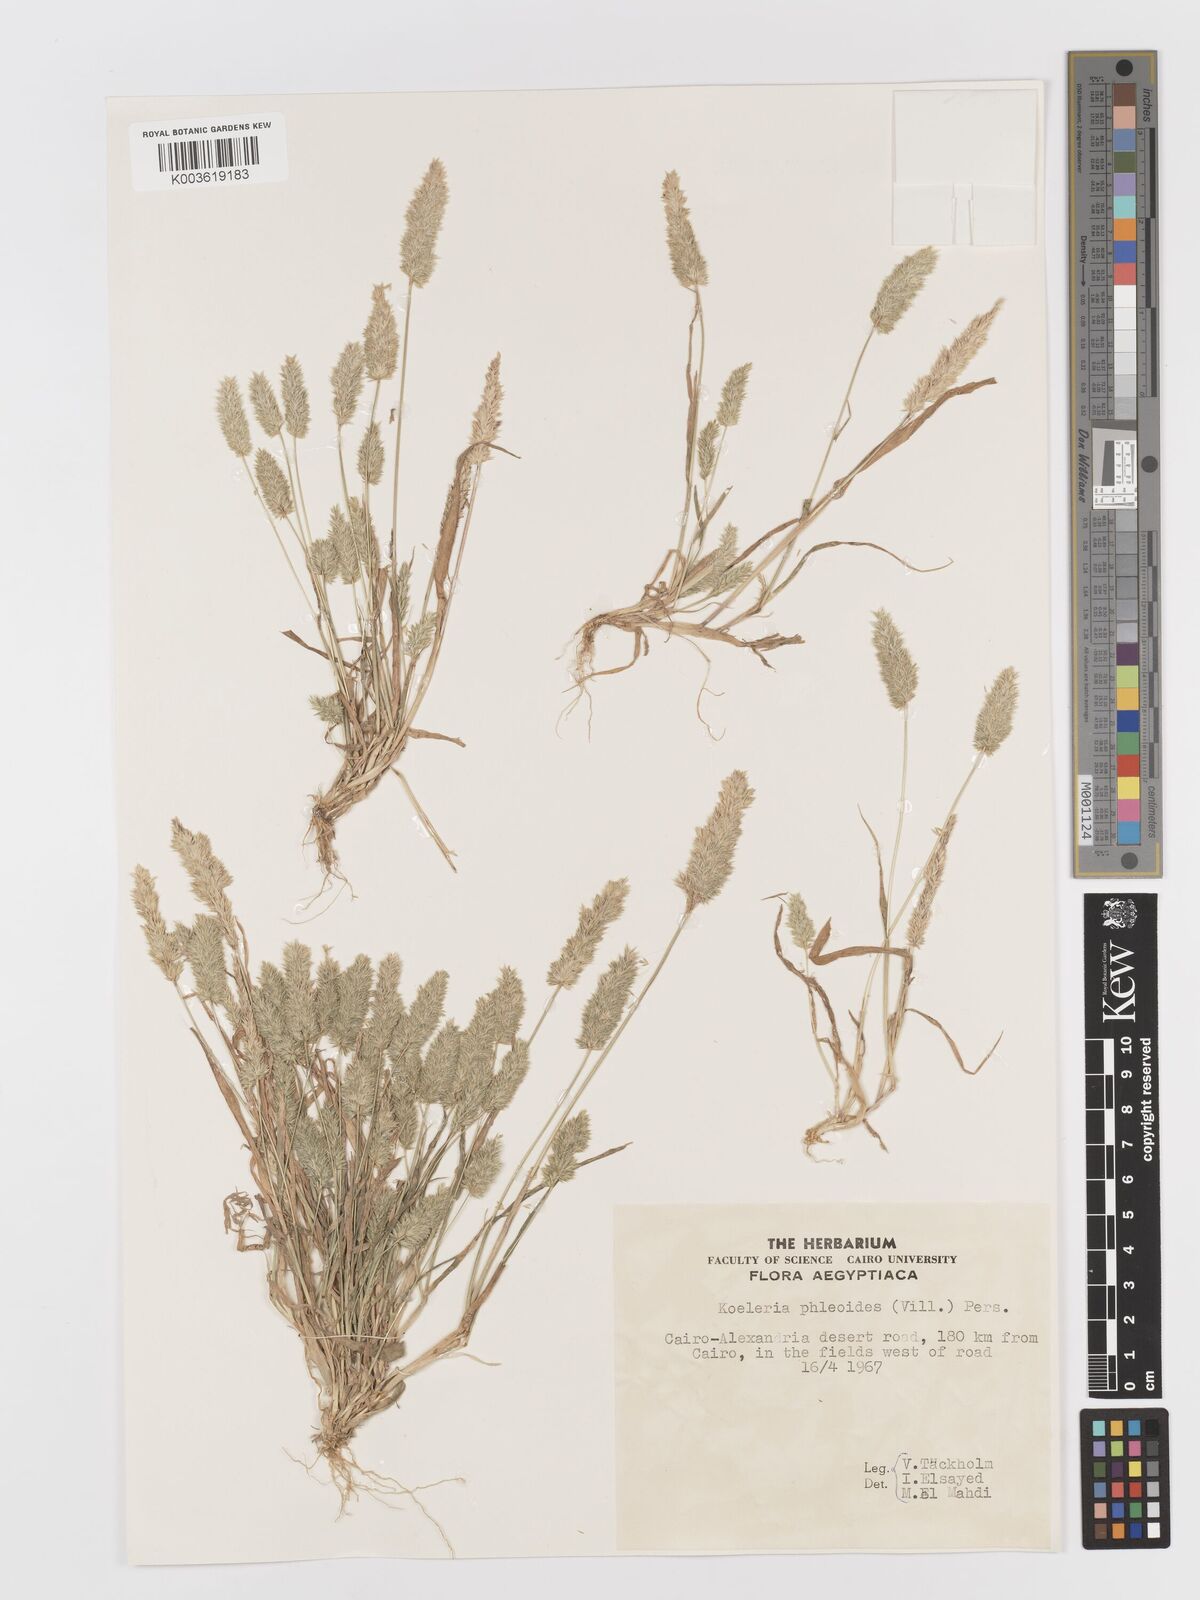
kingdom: Plantae
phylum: Tracheophyta
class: Liliopsida
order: Poales
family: Poaceae
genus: Rostraria
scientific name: Rostraria cristata
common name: Mediterranean hair-grass
